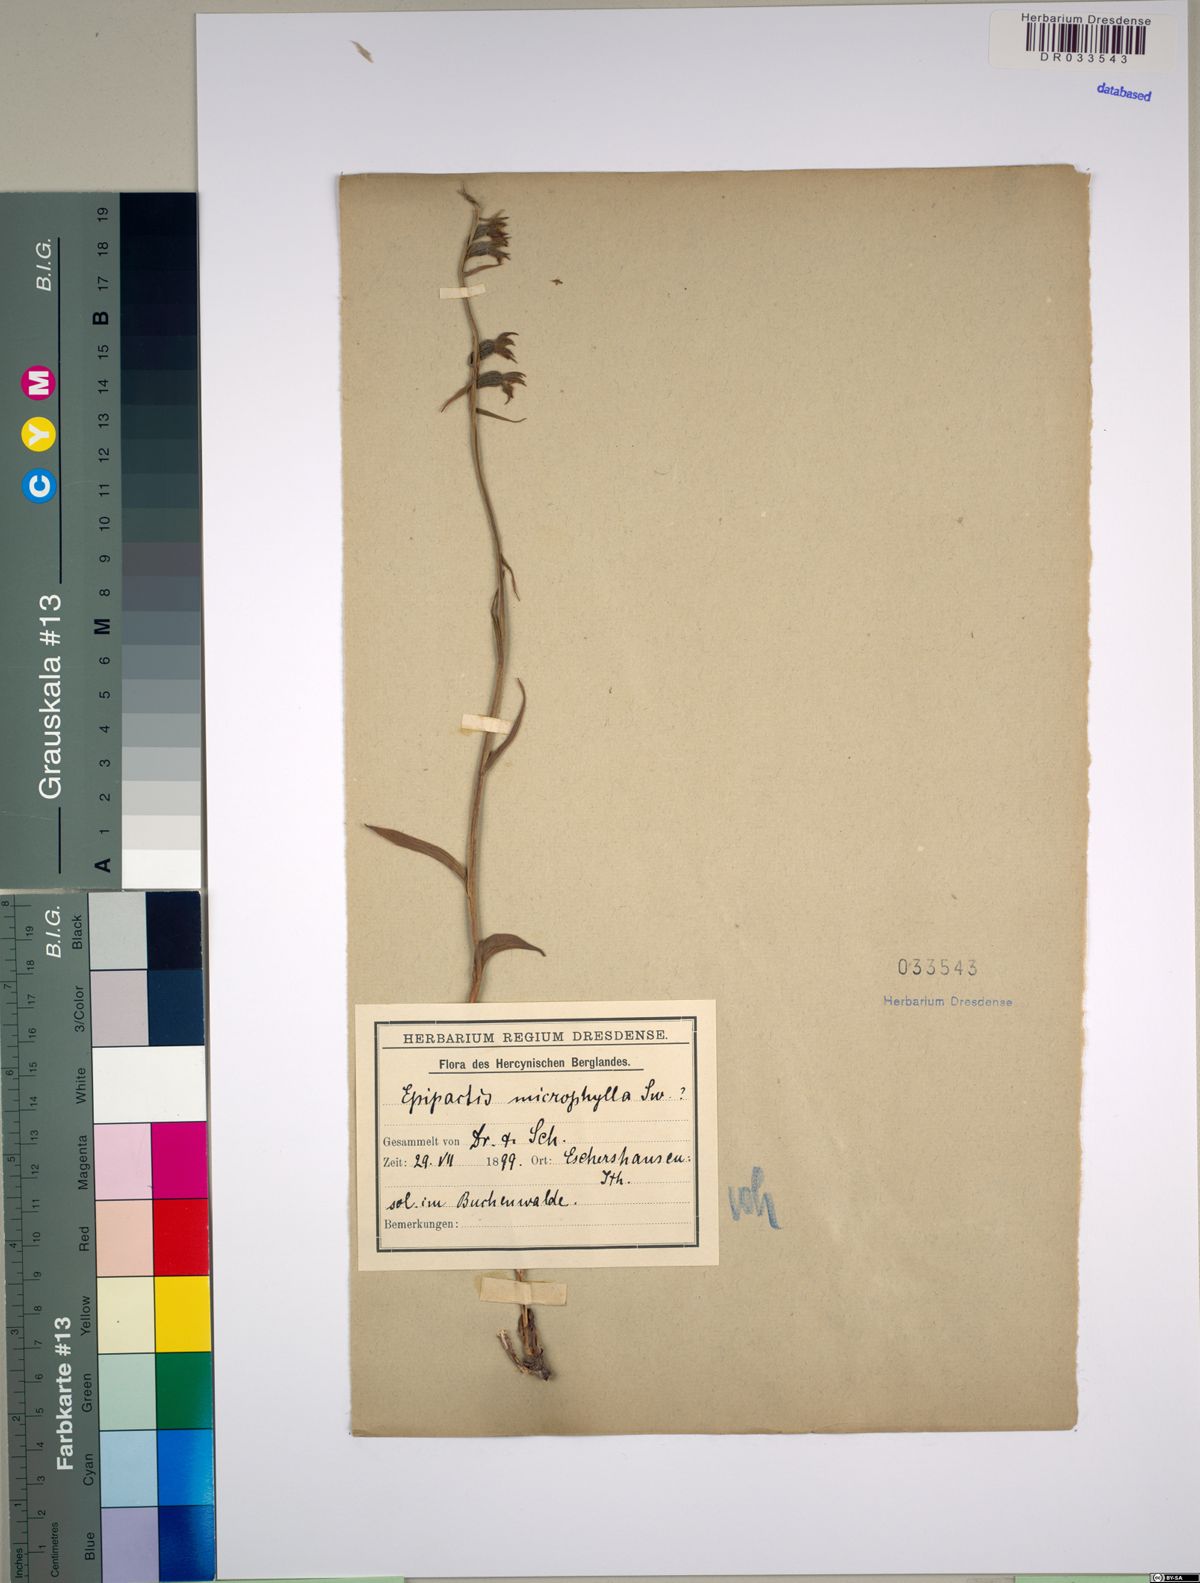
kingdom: Plantae
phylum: Tracheophyta
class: Liliopsida
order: Asparagales
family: Orchidaceae
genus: Epipactis
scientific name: Epipactis microphylla
